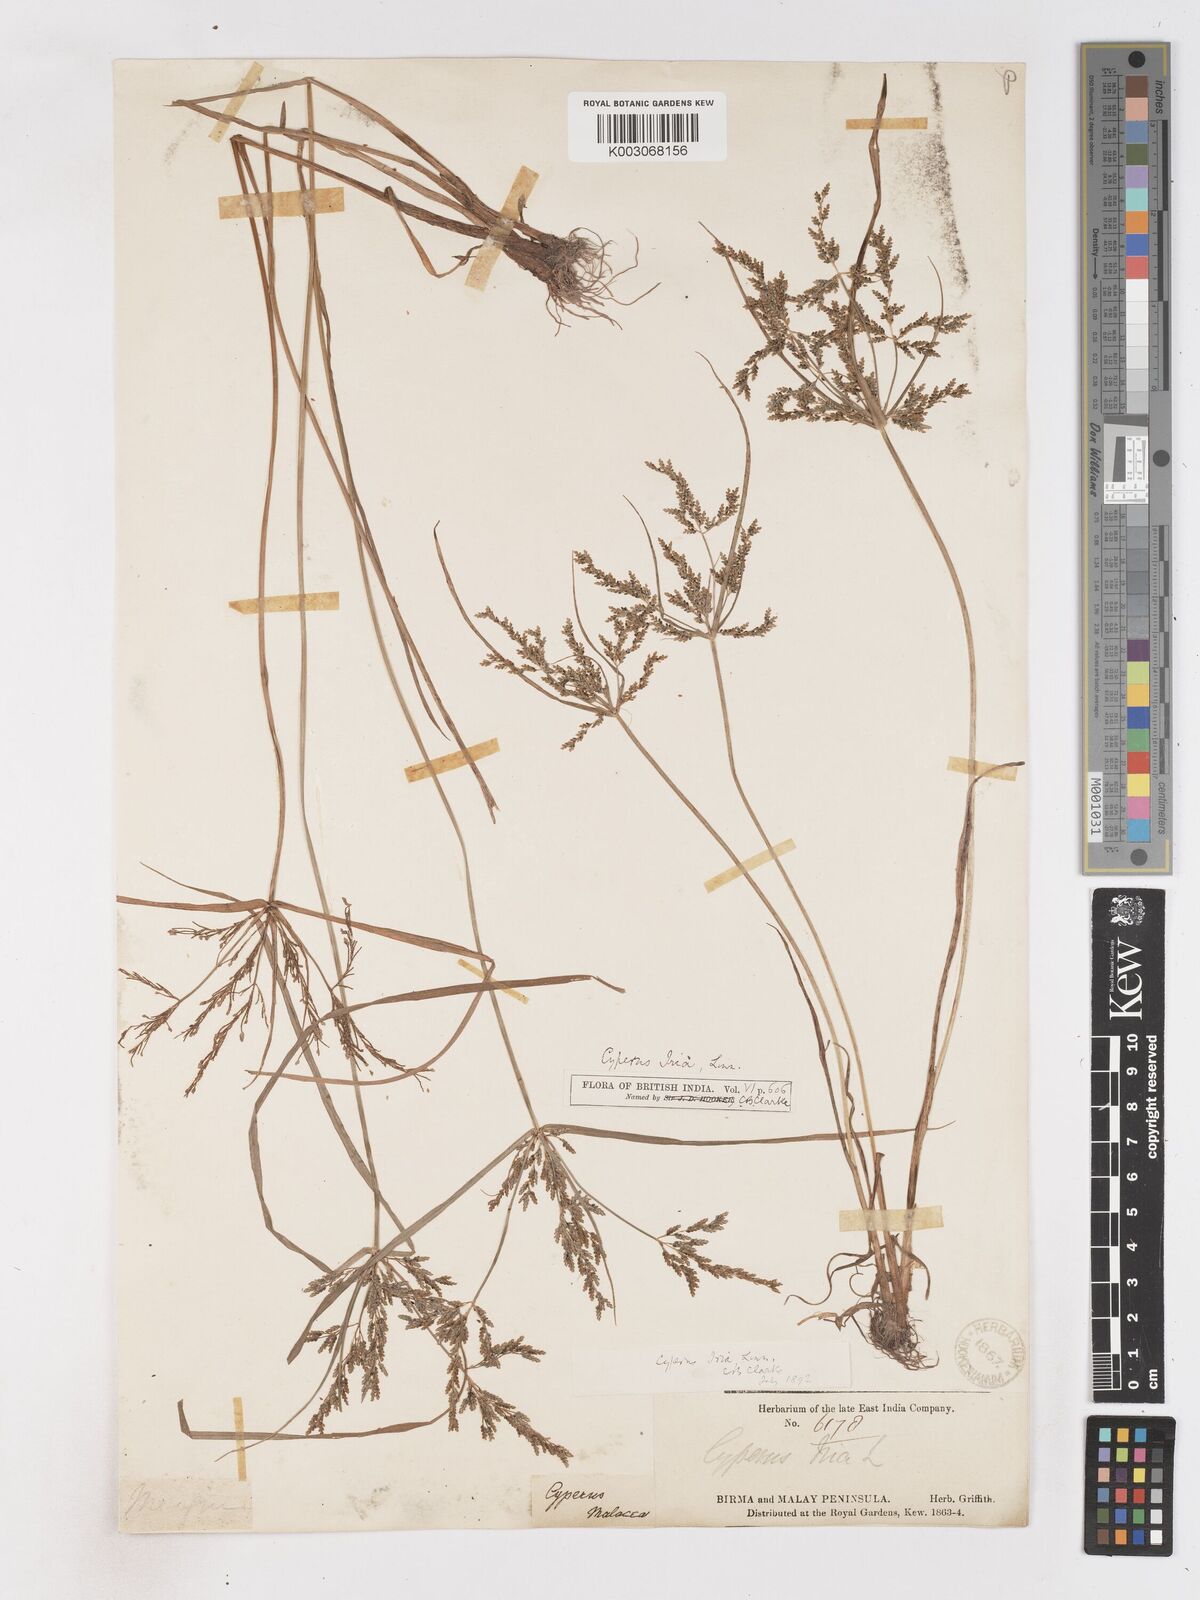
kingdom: Plantae
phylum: Tracheophyta
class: Liliopsida
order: Poales
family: Cyperaceae
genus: Cyperus
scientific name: Cyperus iria
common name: Ricefield flatsedge
